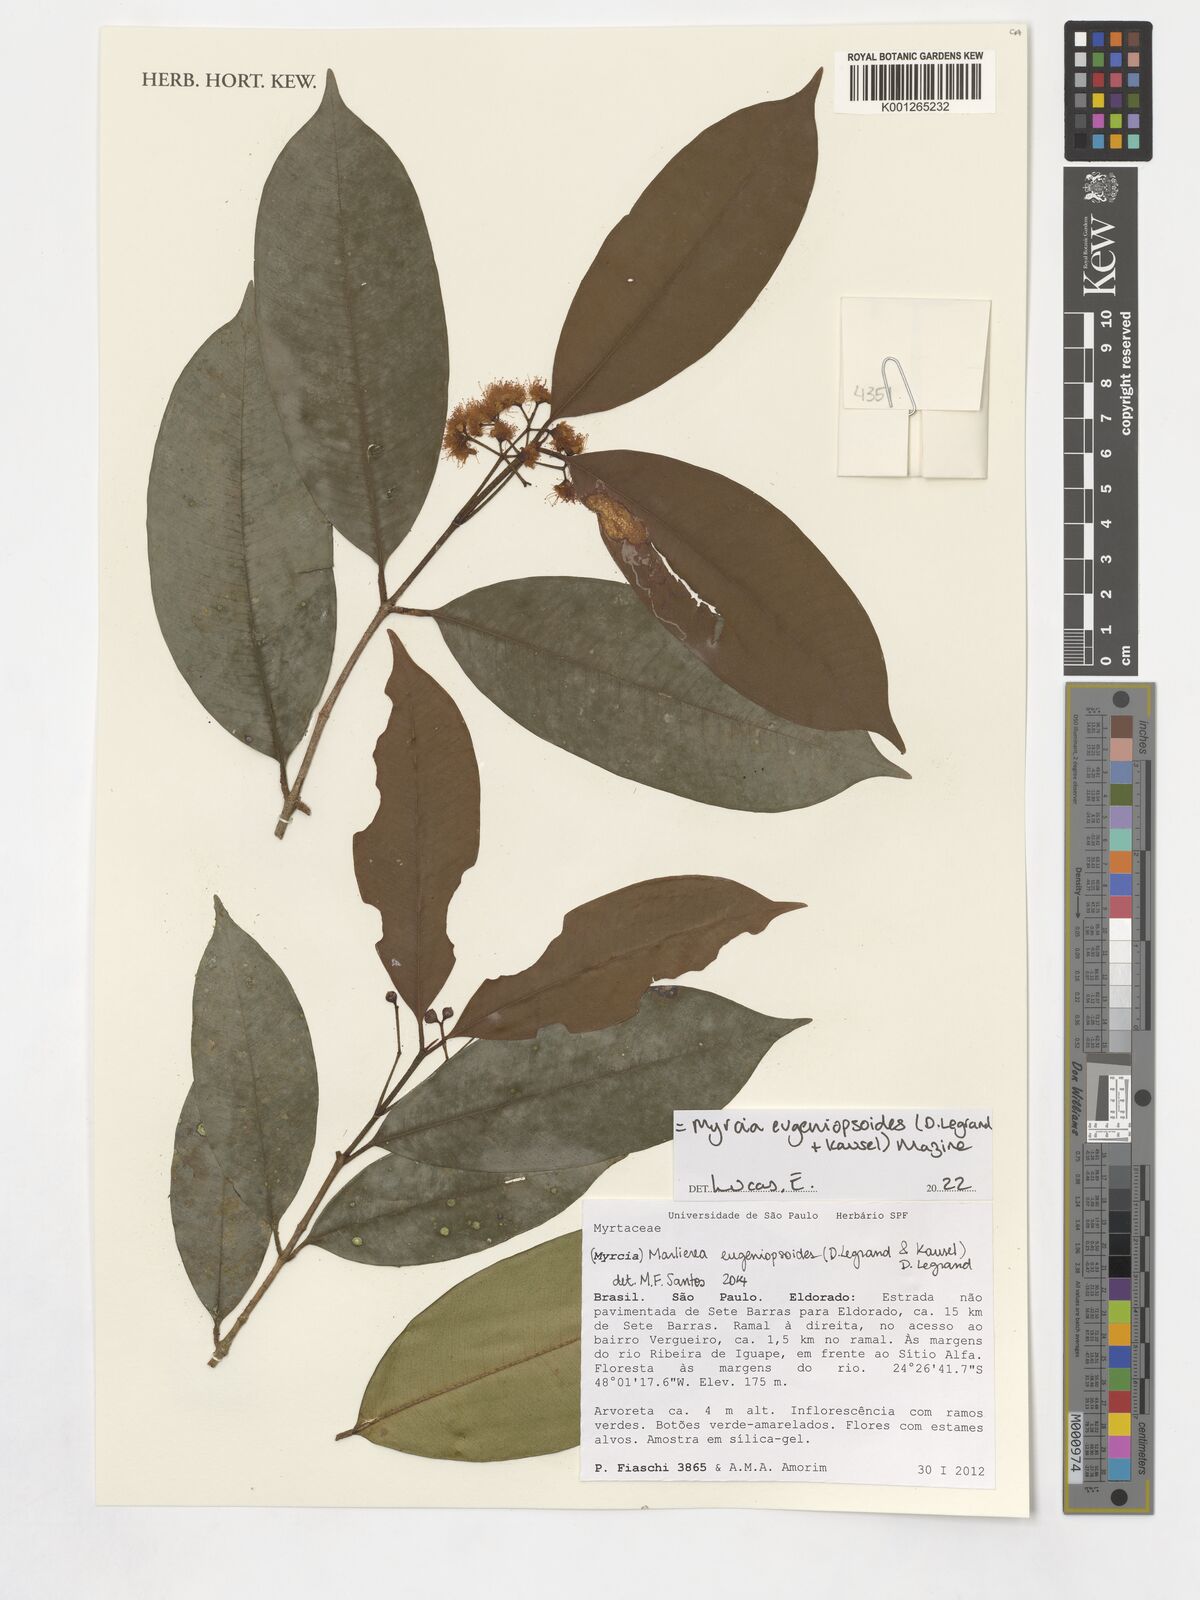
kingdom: Plantae
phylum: Tracheophyta
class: Magnoliopsida
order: Myrtales
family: Myrtaceae
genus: Myrcia
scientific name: Myrcia eugeniopsoides
